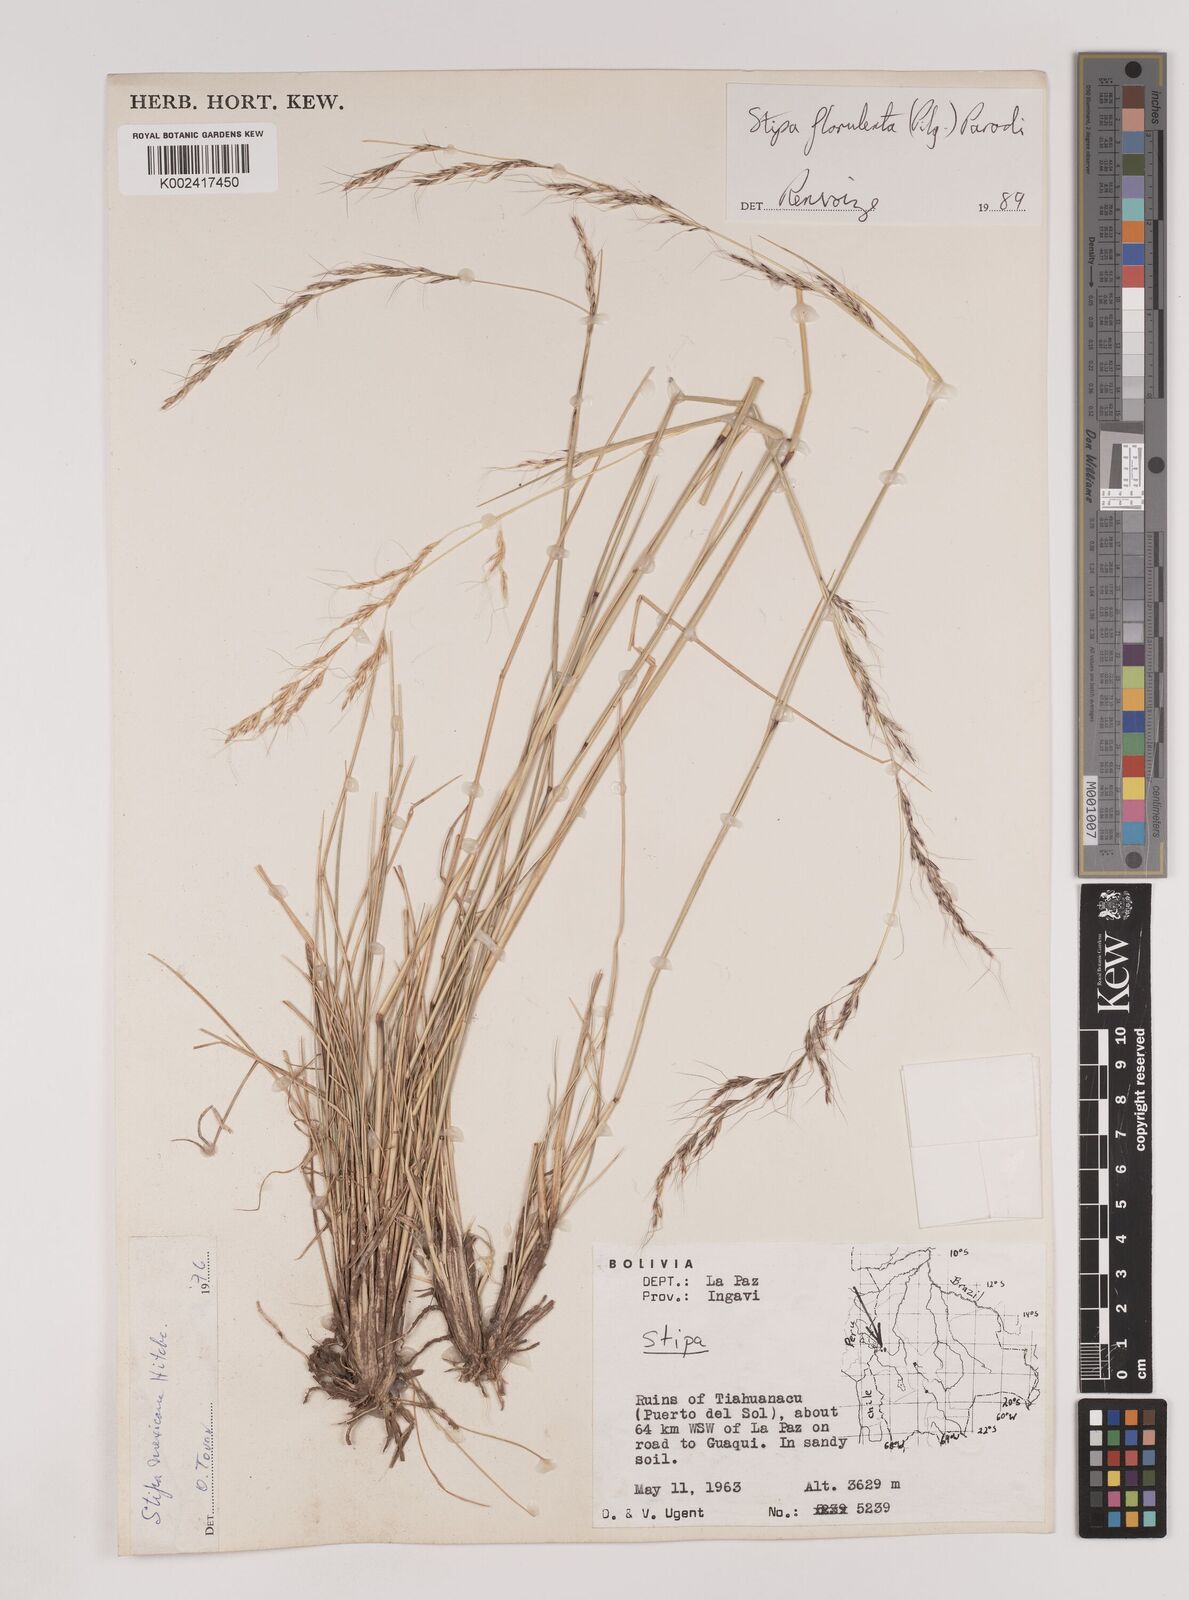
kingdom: Plantae
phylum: Tracheophyta
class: Liliopsida
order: Poales
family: Poaceae
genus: Nassella
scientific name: Nassella caespitosa
